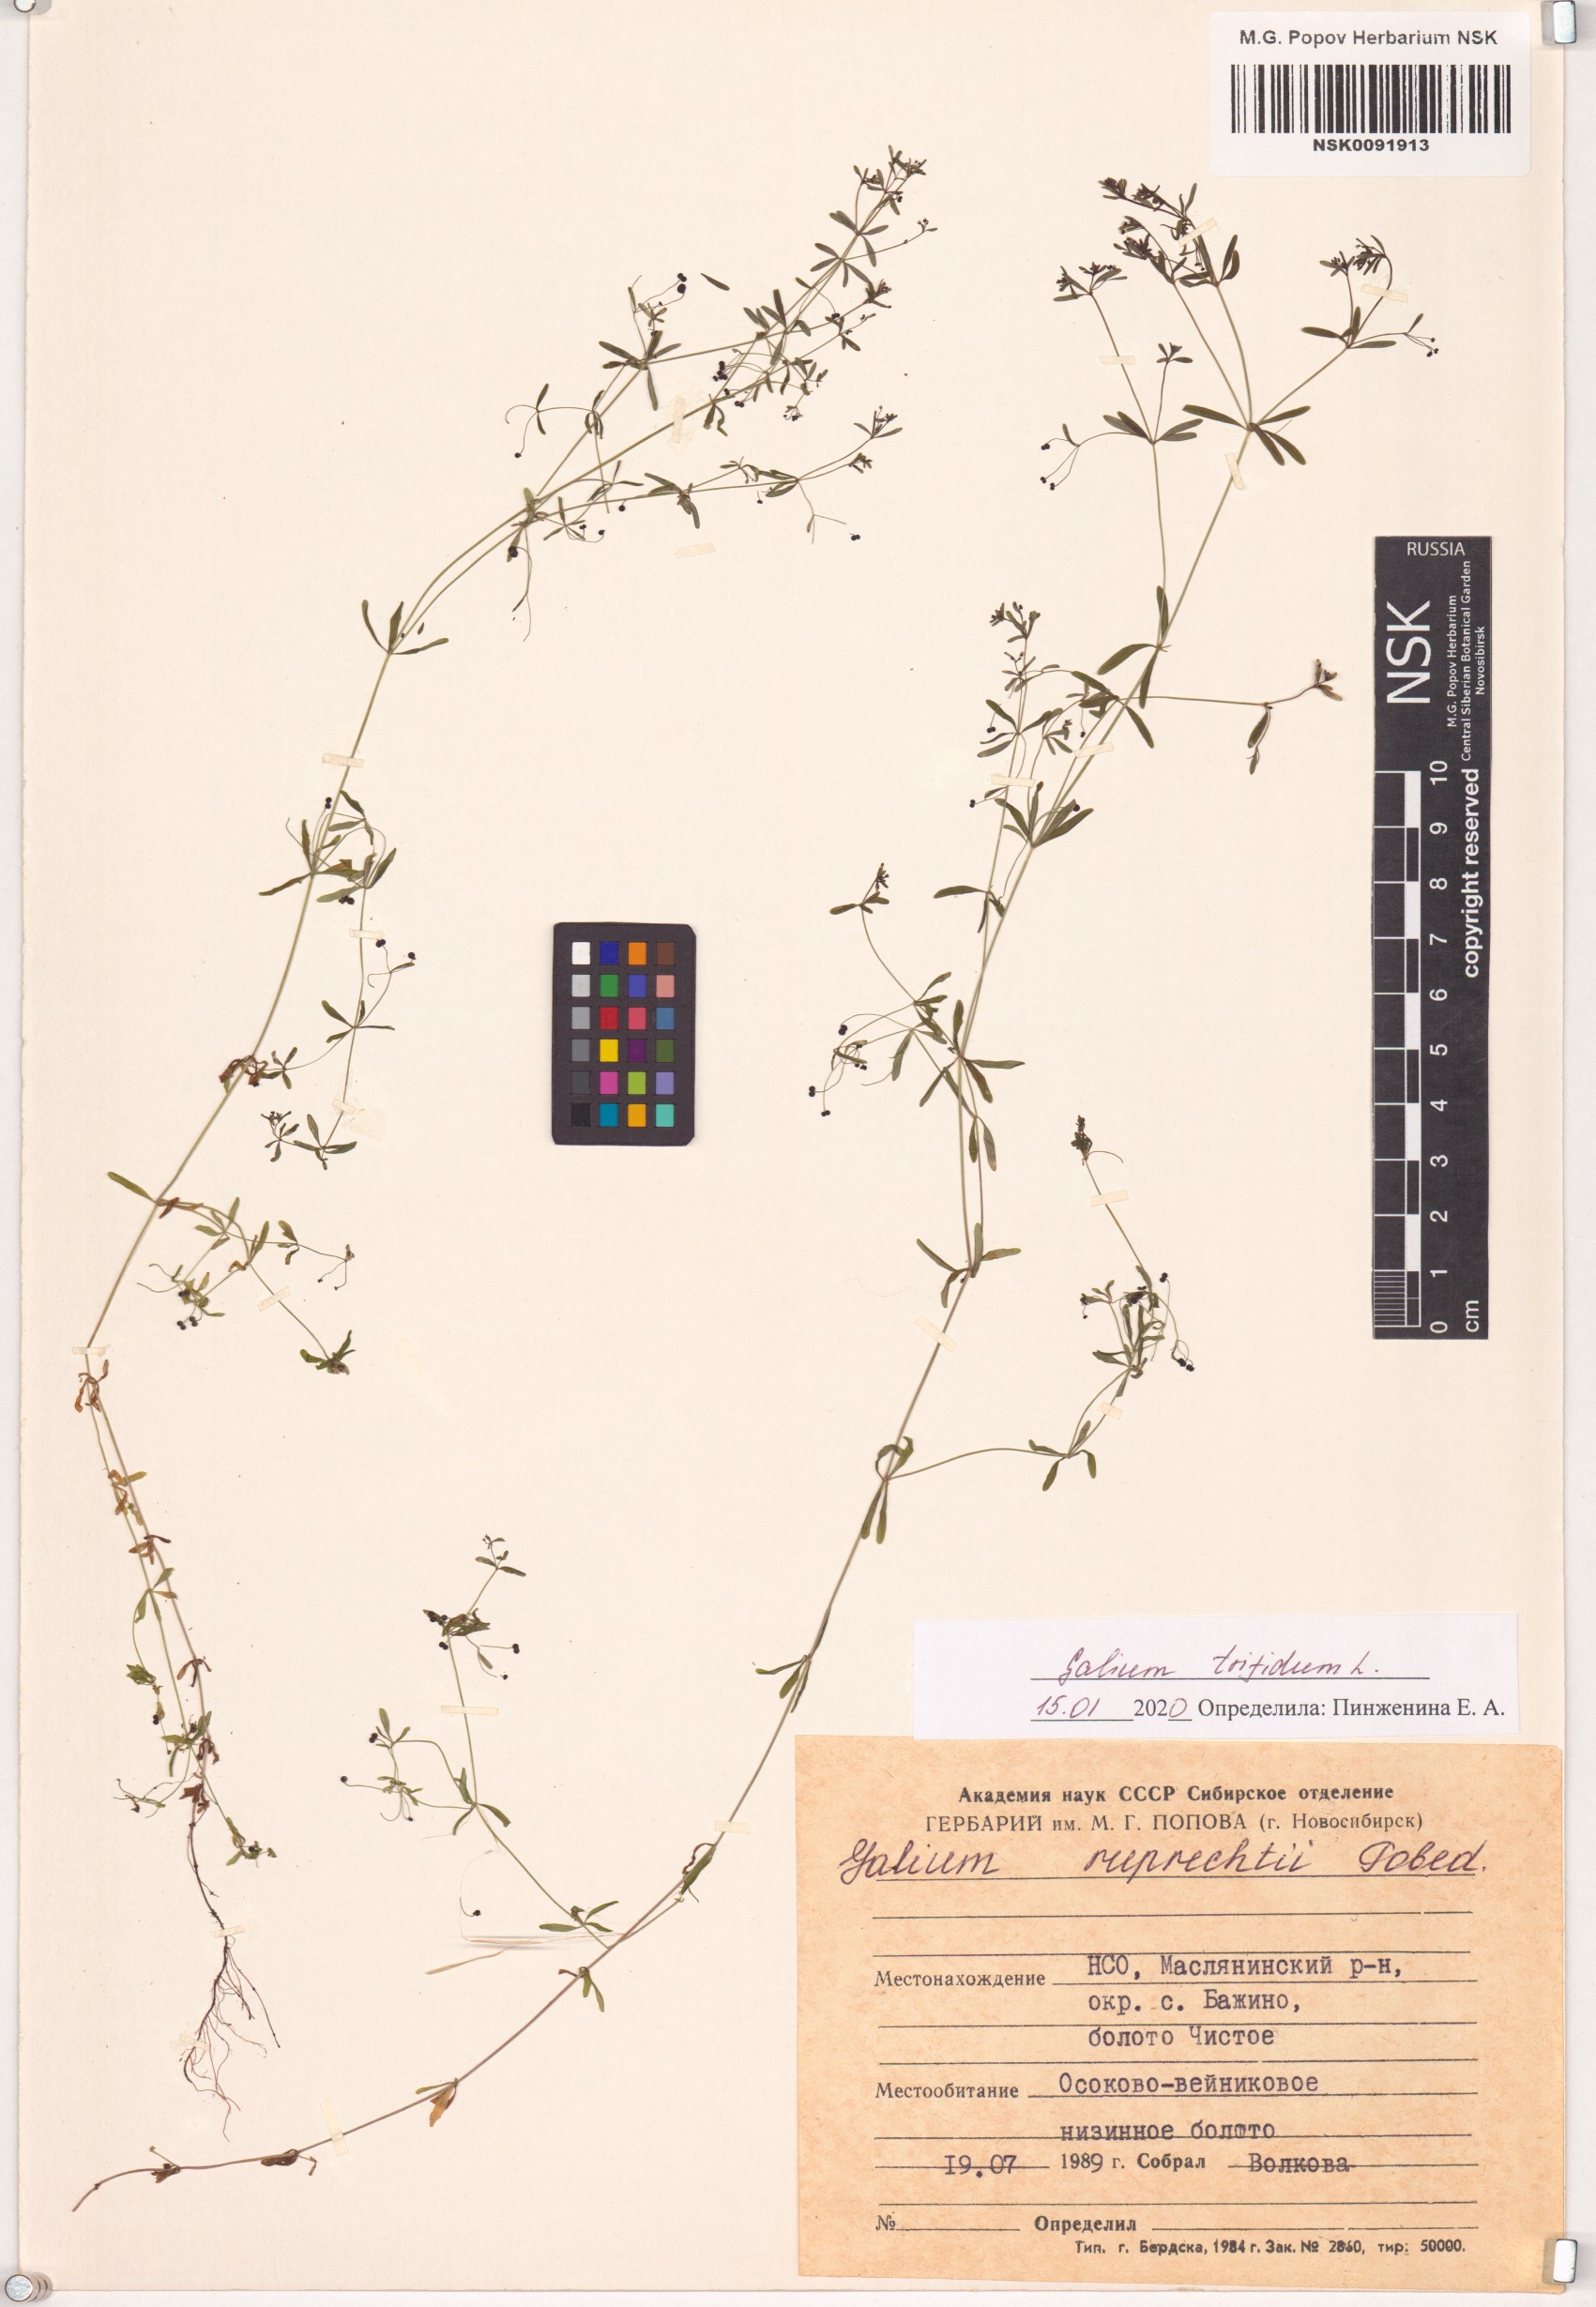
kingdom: Plantae
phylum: Tracheophyta
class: Magnoliopsida
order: Gentianales
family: Rubiaceae
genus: Galium
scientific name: Galium trifidum
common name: Small bedstraw
